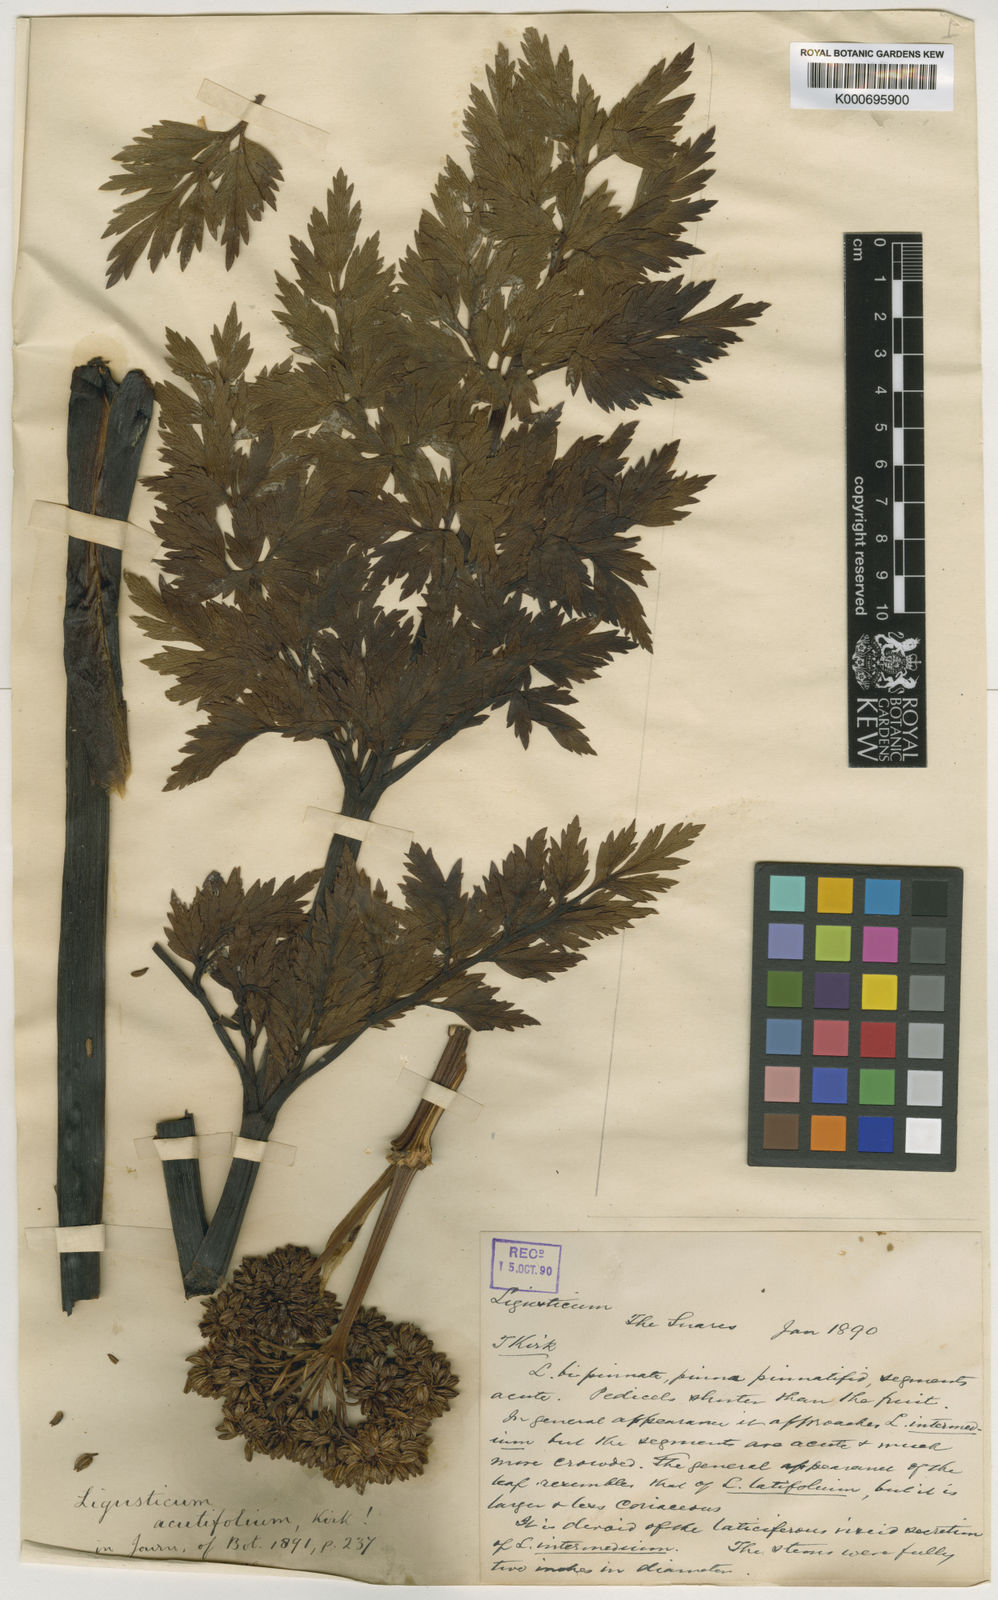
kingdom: Plantae
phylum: Tracheophyta
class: Magnoliopsida
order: Apiales
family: Apiaceae
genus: Anisotome
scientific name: Anisotome
